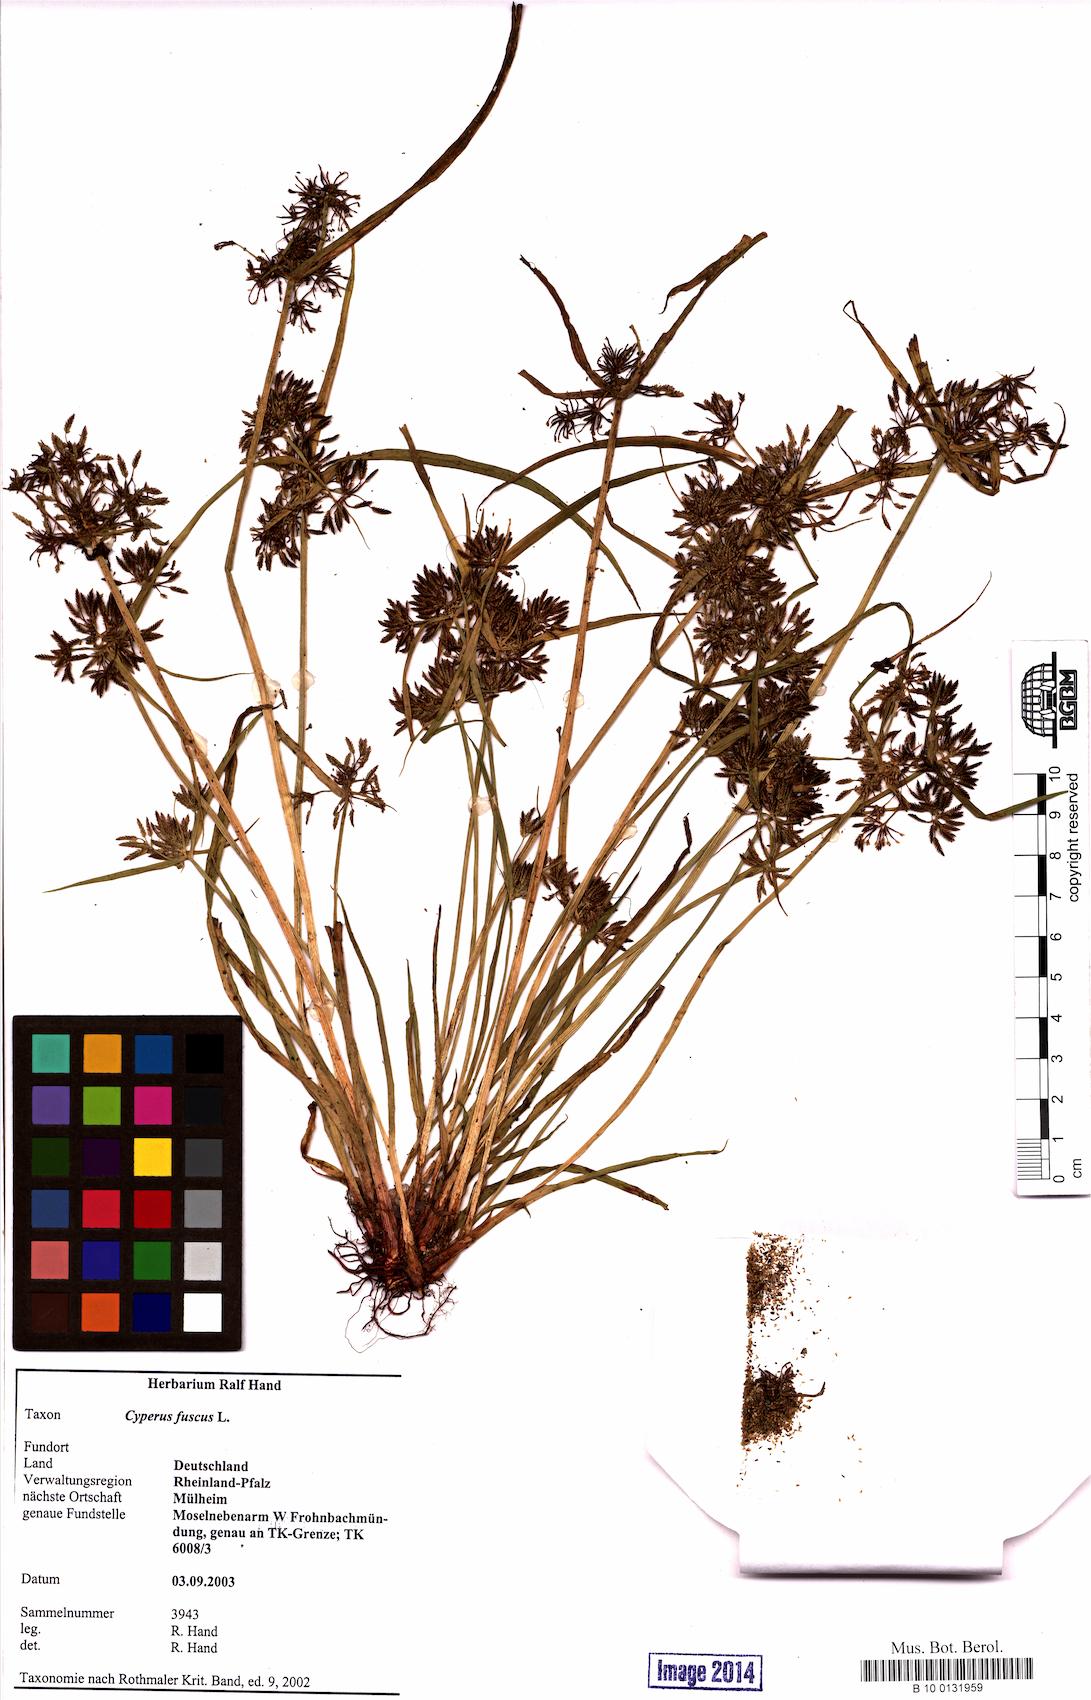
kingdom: Plantae
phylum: Tracheophyta
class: Liliopsida
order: Poales
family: Cyperaceae
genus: Cyperus
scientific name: Cyperus fuscus
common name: Brown galingale
